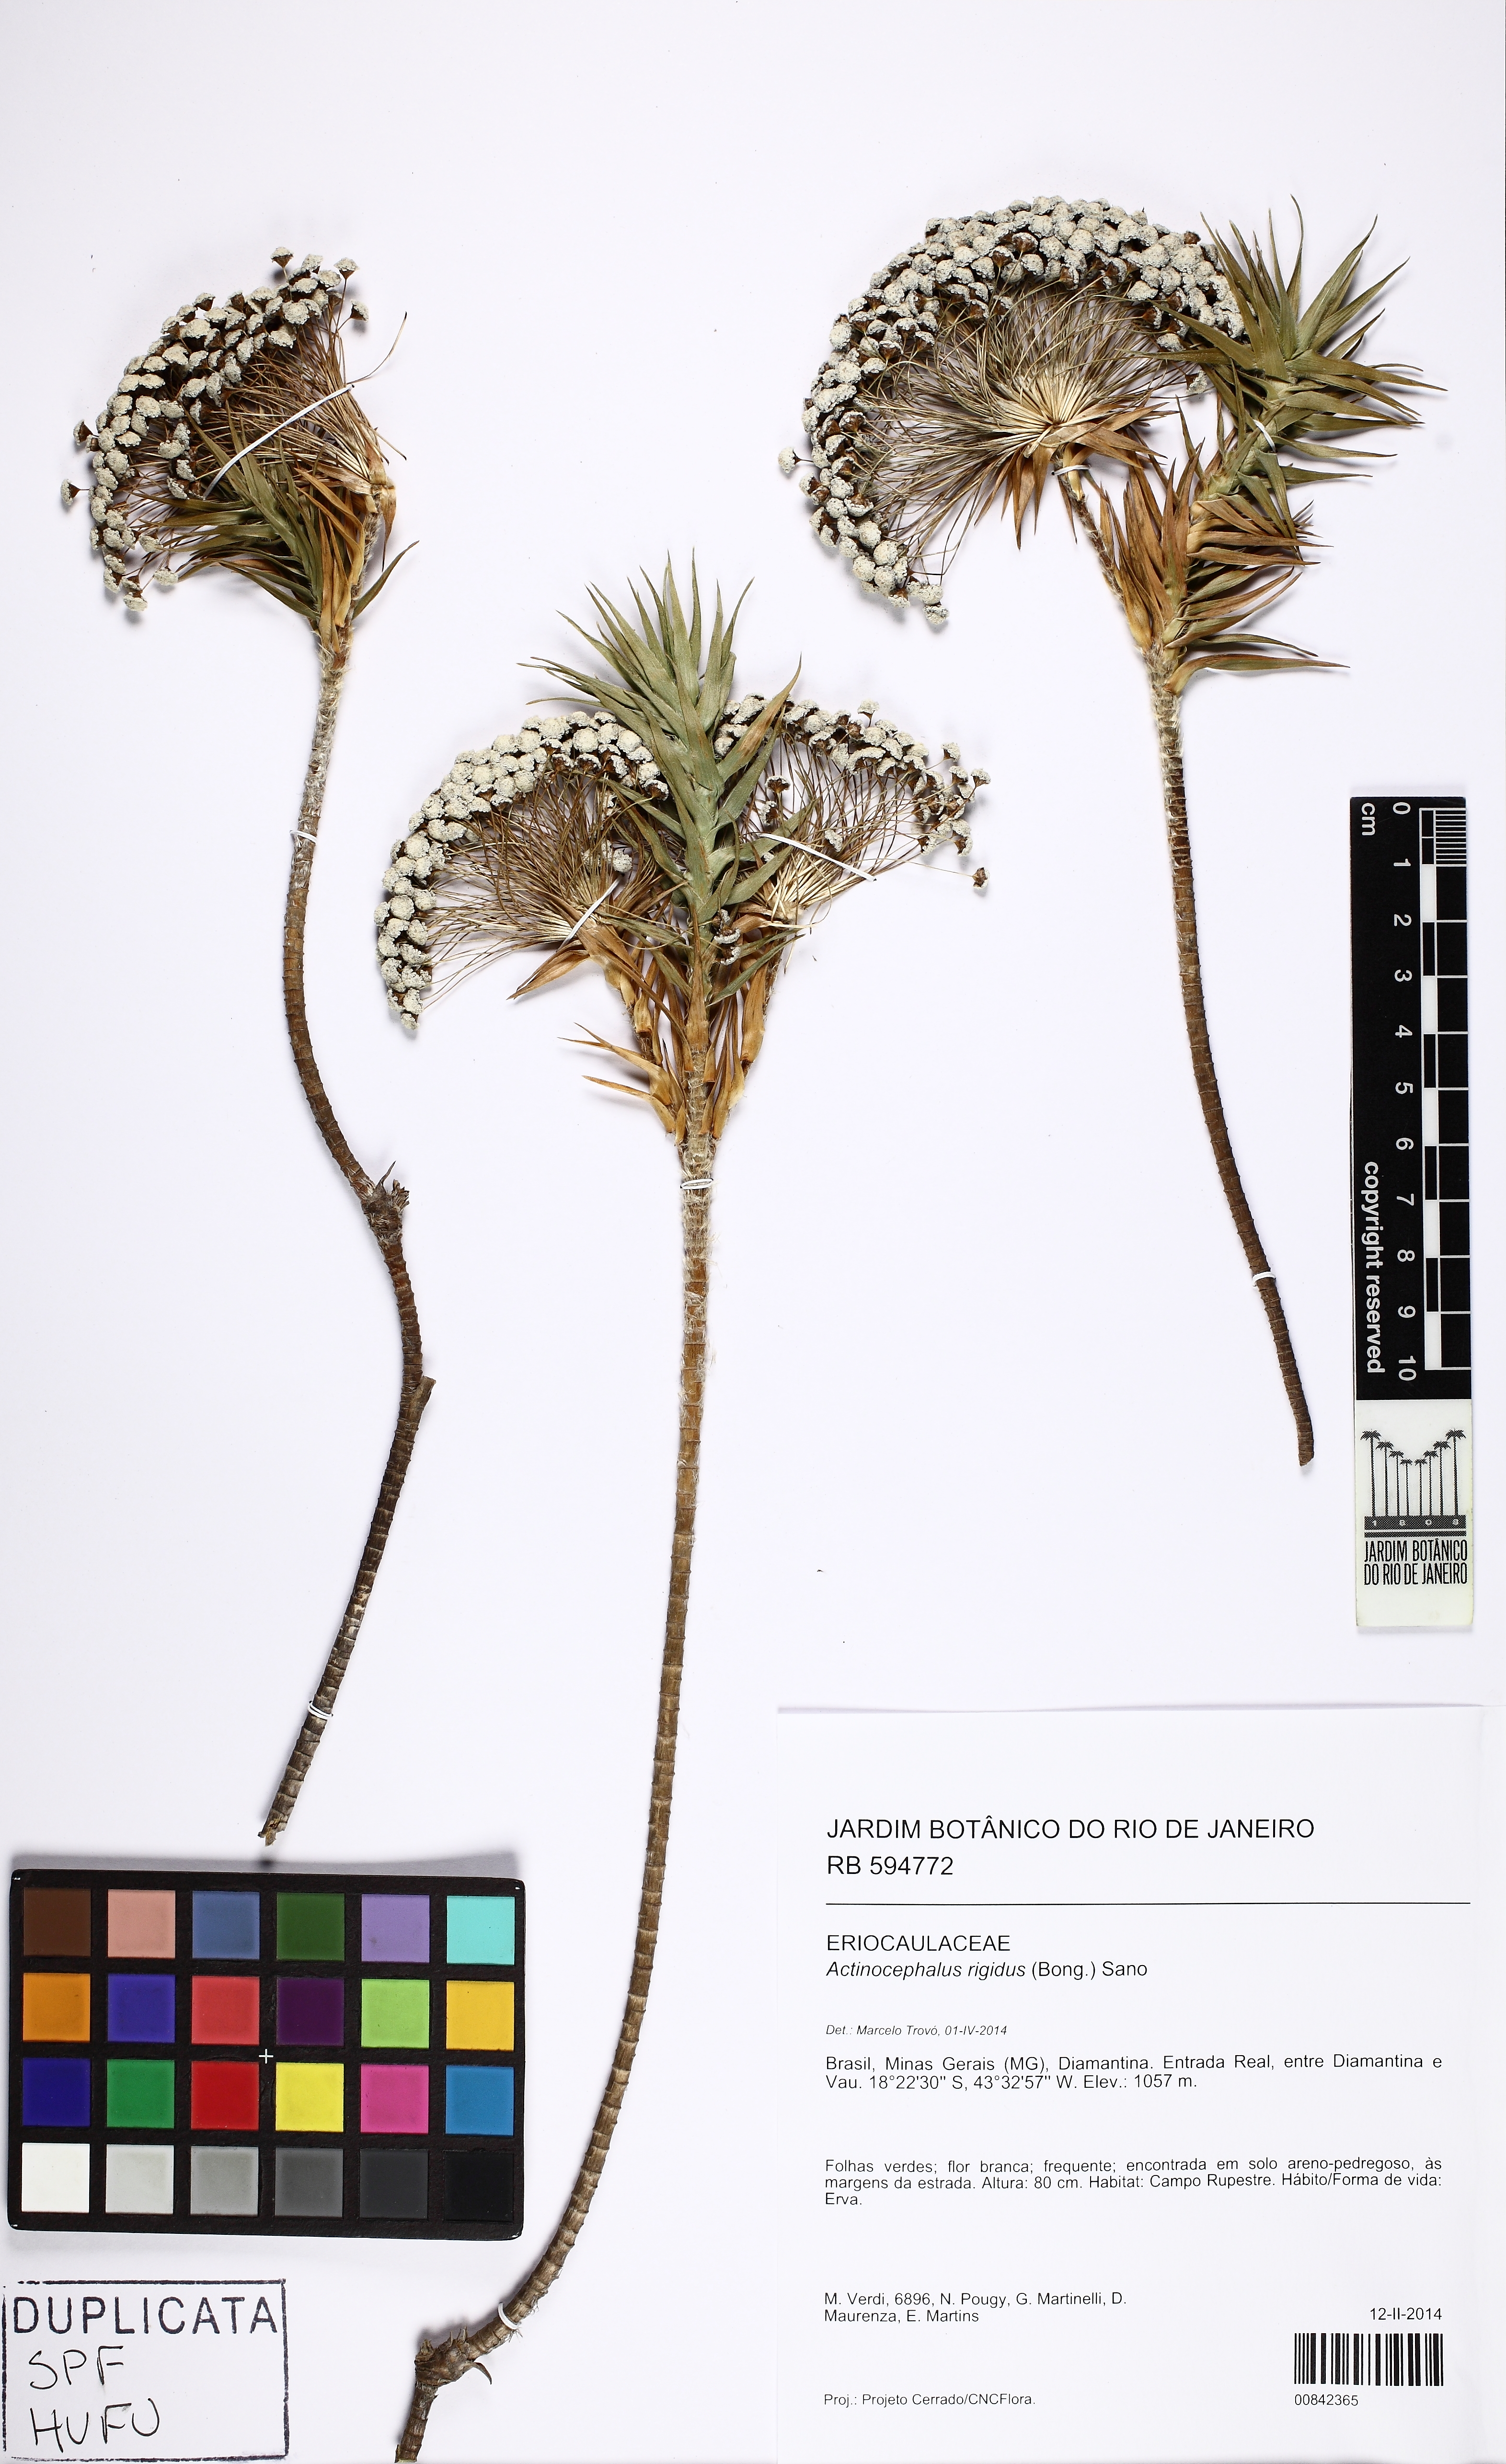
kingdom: Plantae
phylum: Tracheophyta
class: Liliopsida
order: Poales
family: Eriocaulaceae
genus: Paepalanthus
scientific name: Paepalanthus rigidus
